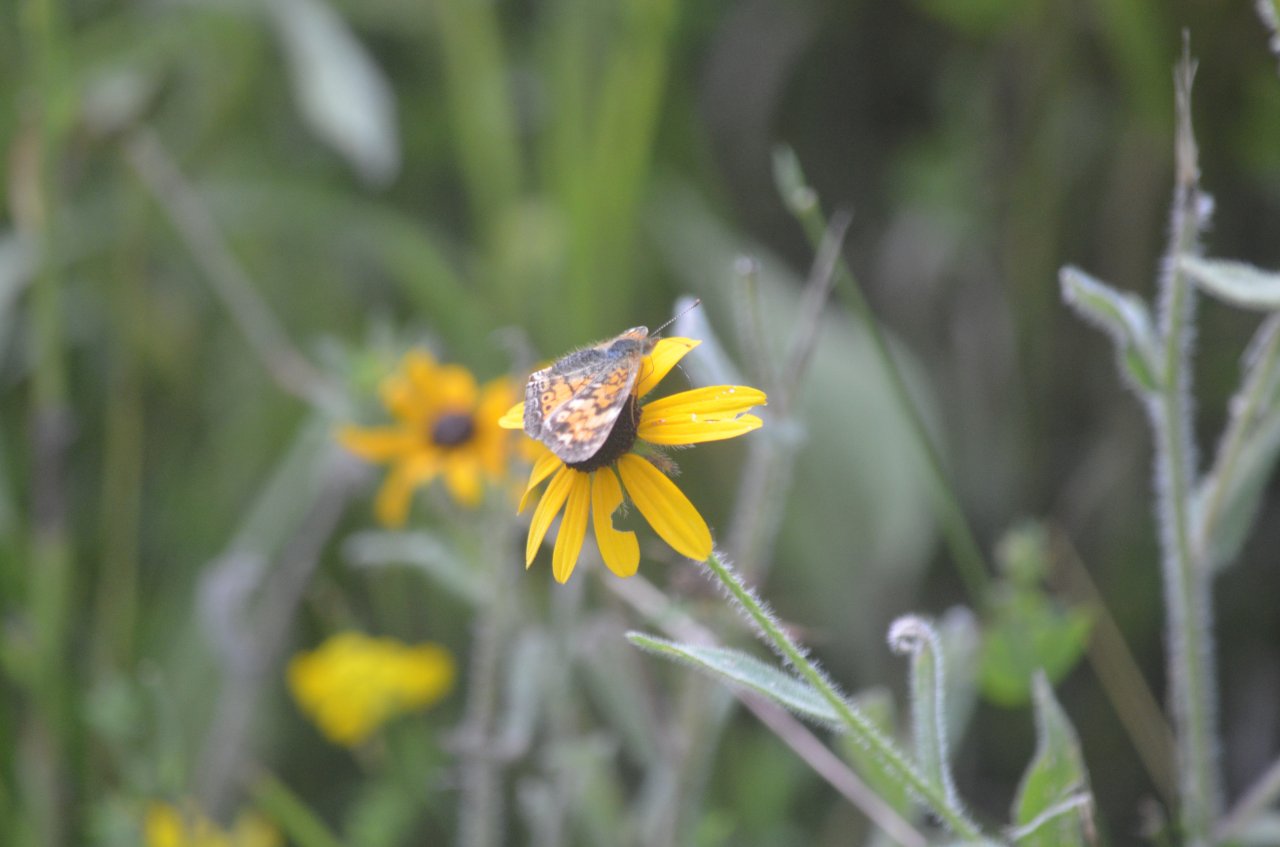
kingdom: Animalia
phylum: Arthropoda
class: Insecta
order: Lepidoptera
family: Nymphalidae
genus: Phyciodes
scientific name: Phyciodes tharos
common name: Pearl Crescent
